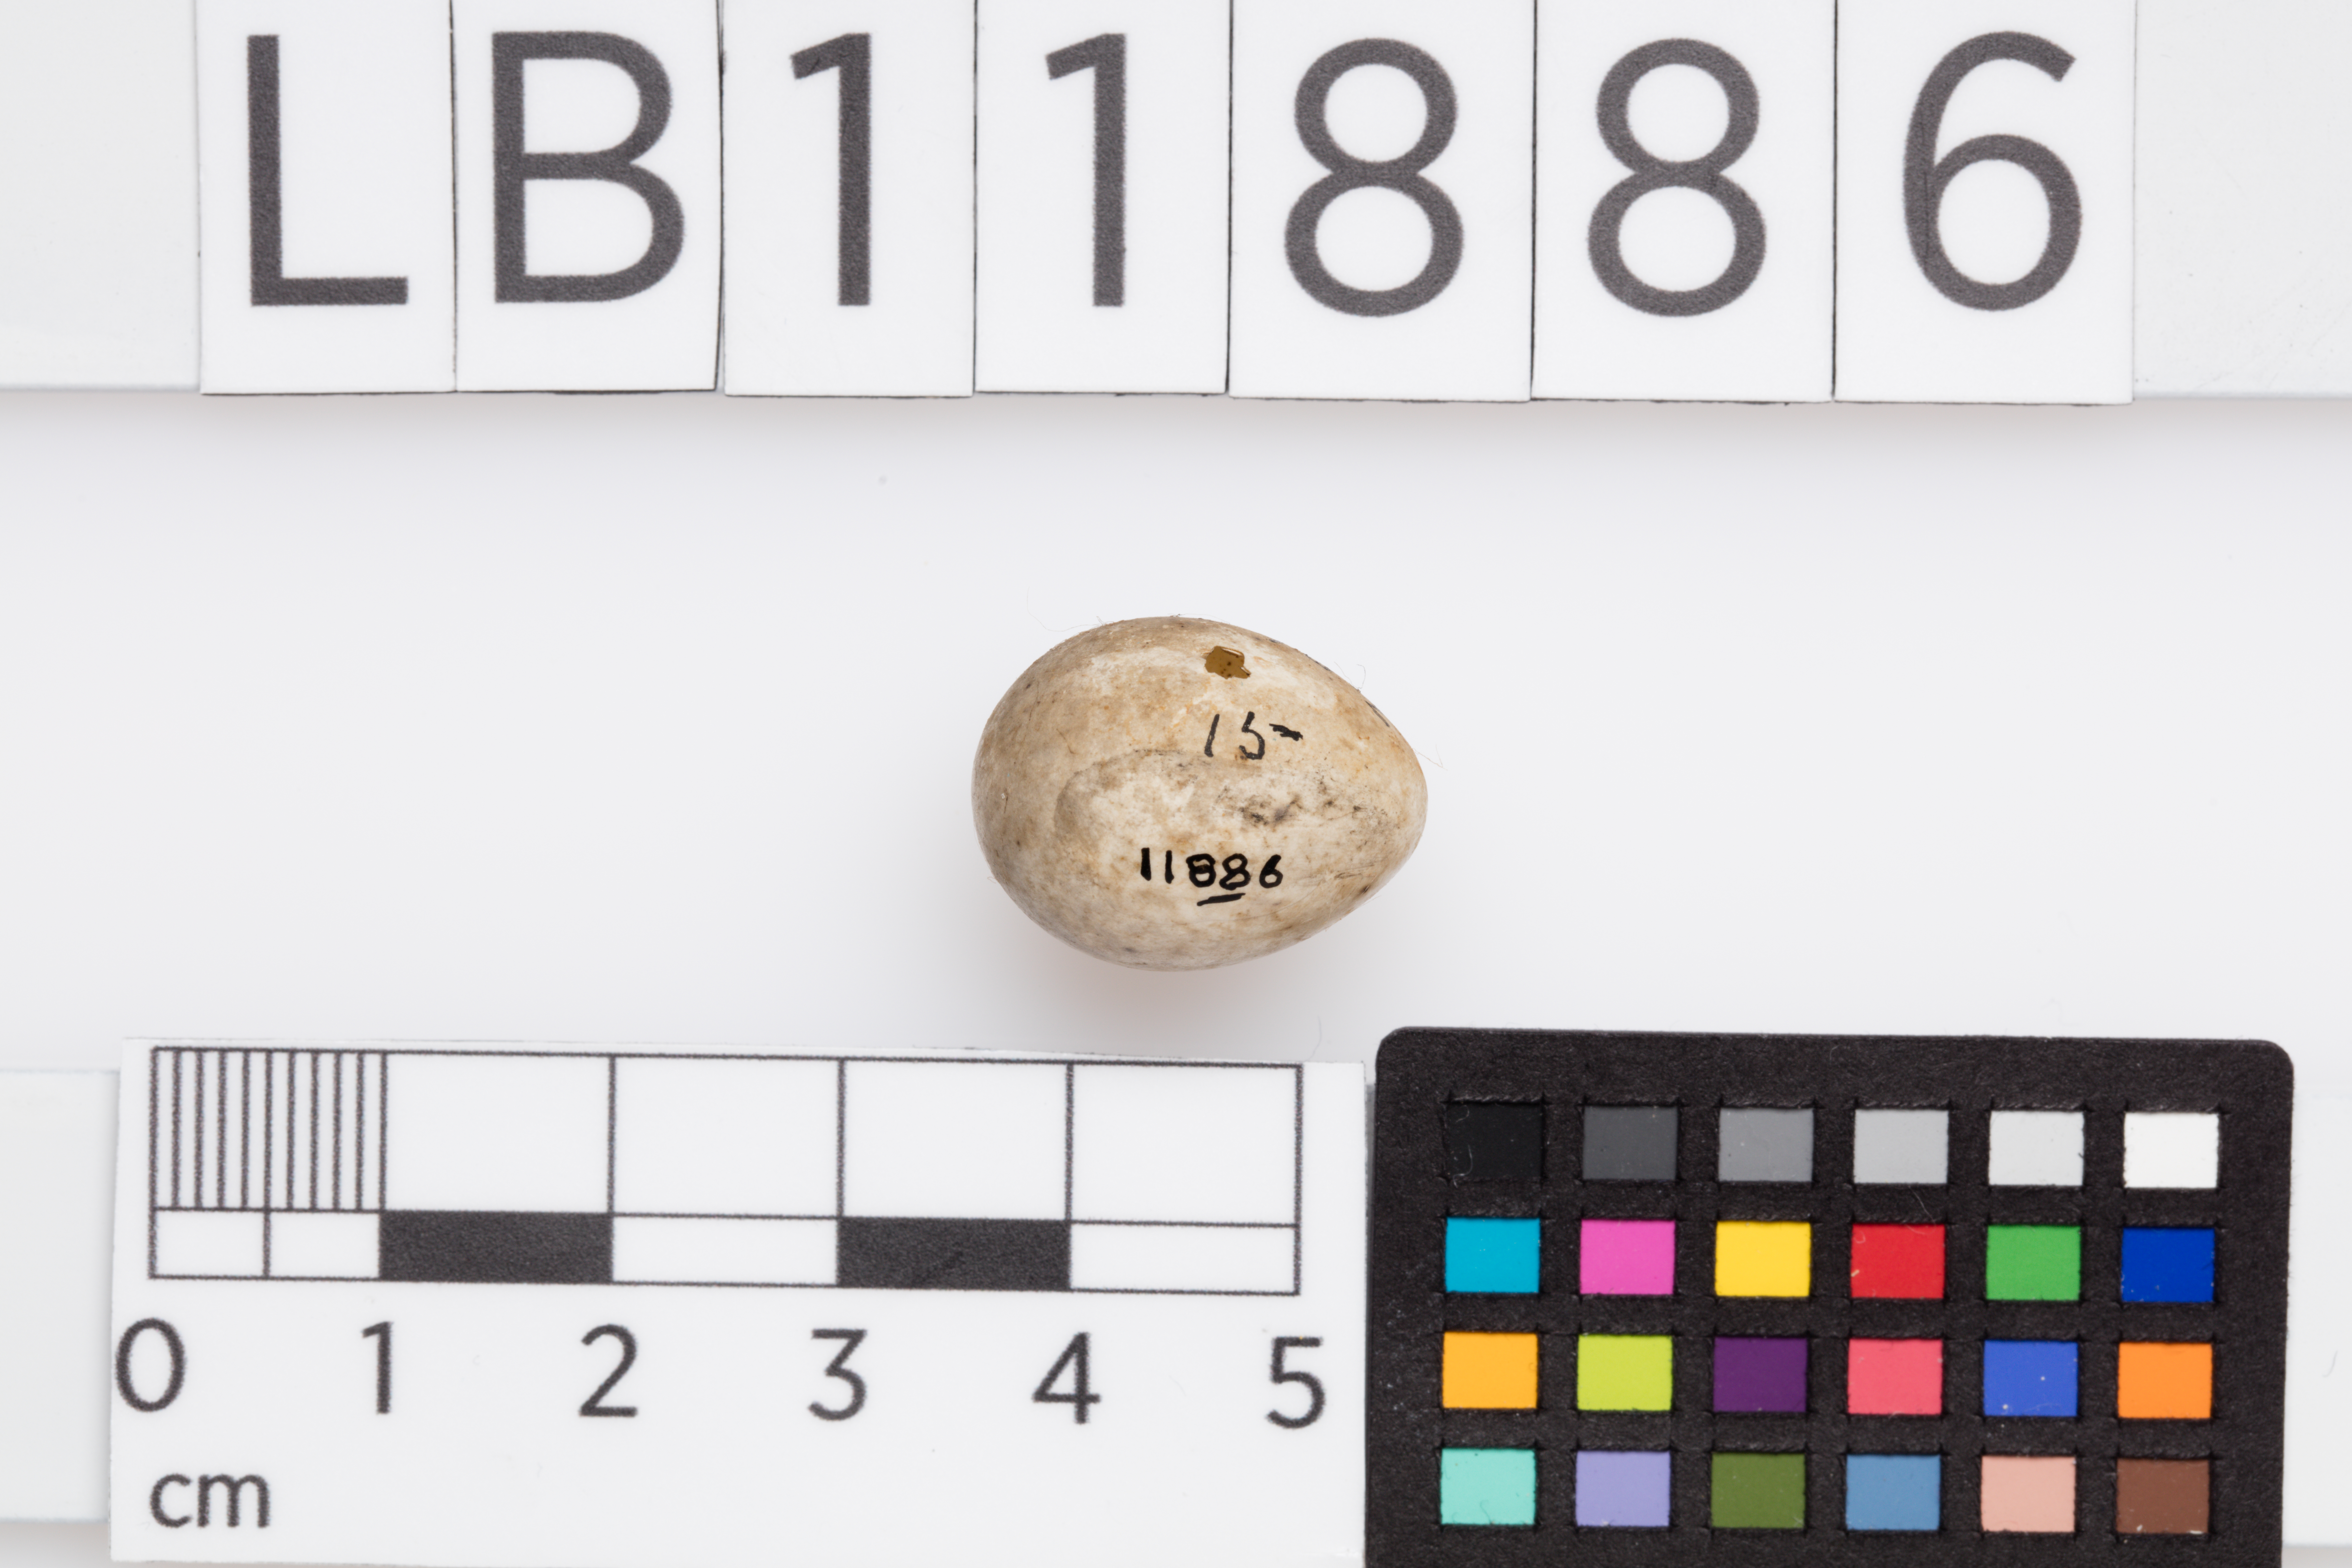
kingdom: Animalia
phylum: Chordata
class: Aves
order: Passeriformes
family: Sylviidae
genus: Sylvia
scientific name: Sylvia borin
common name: Garden warbler
